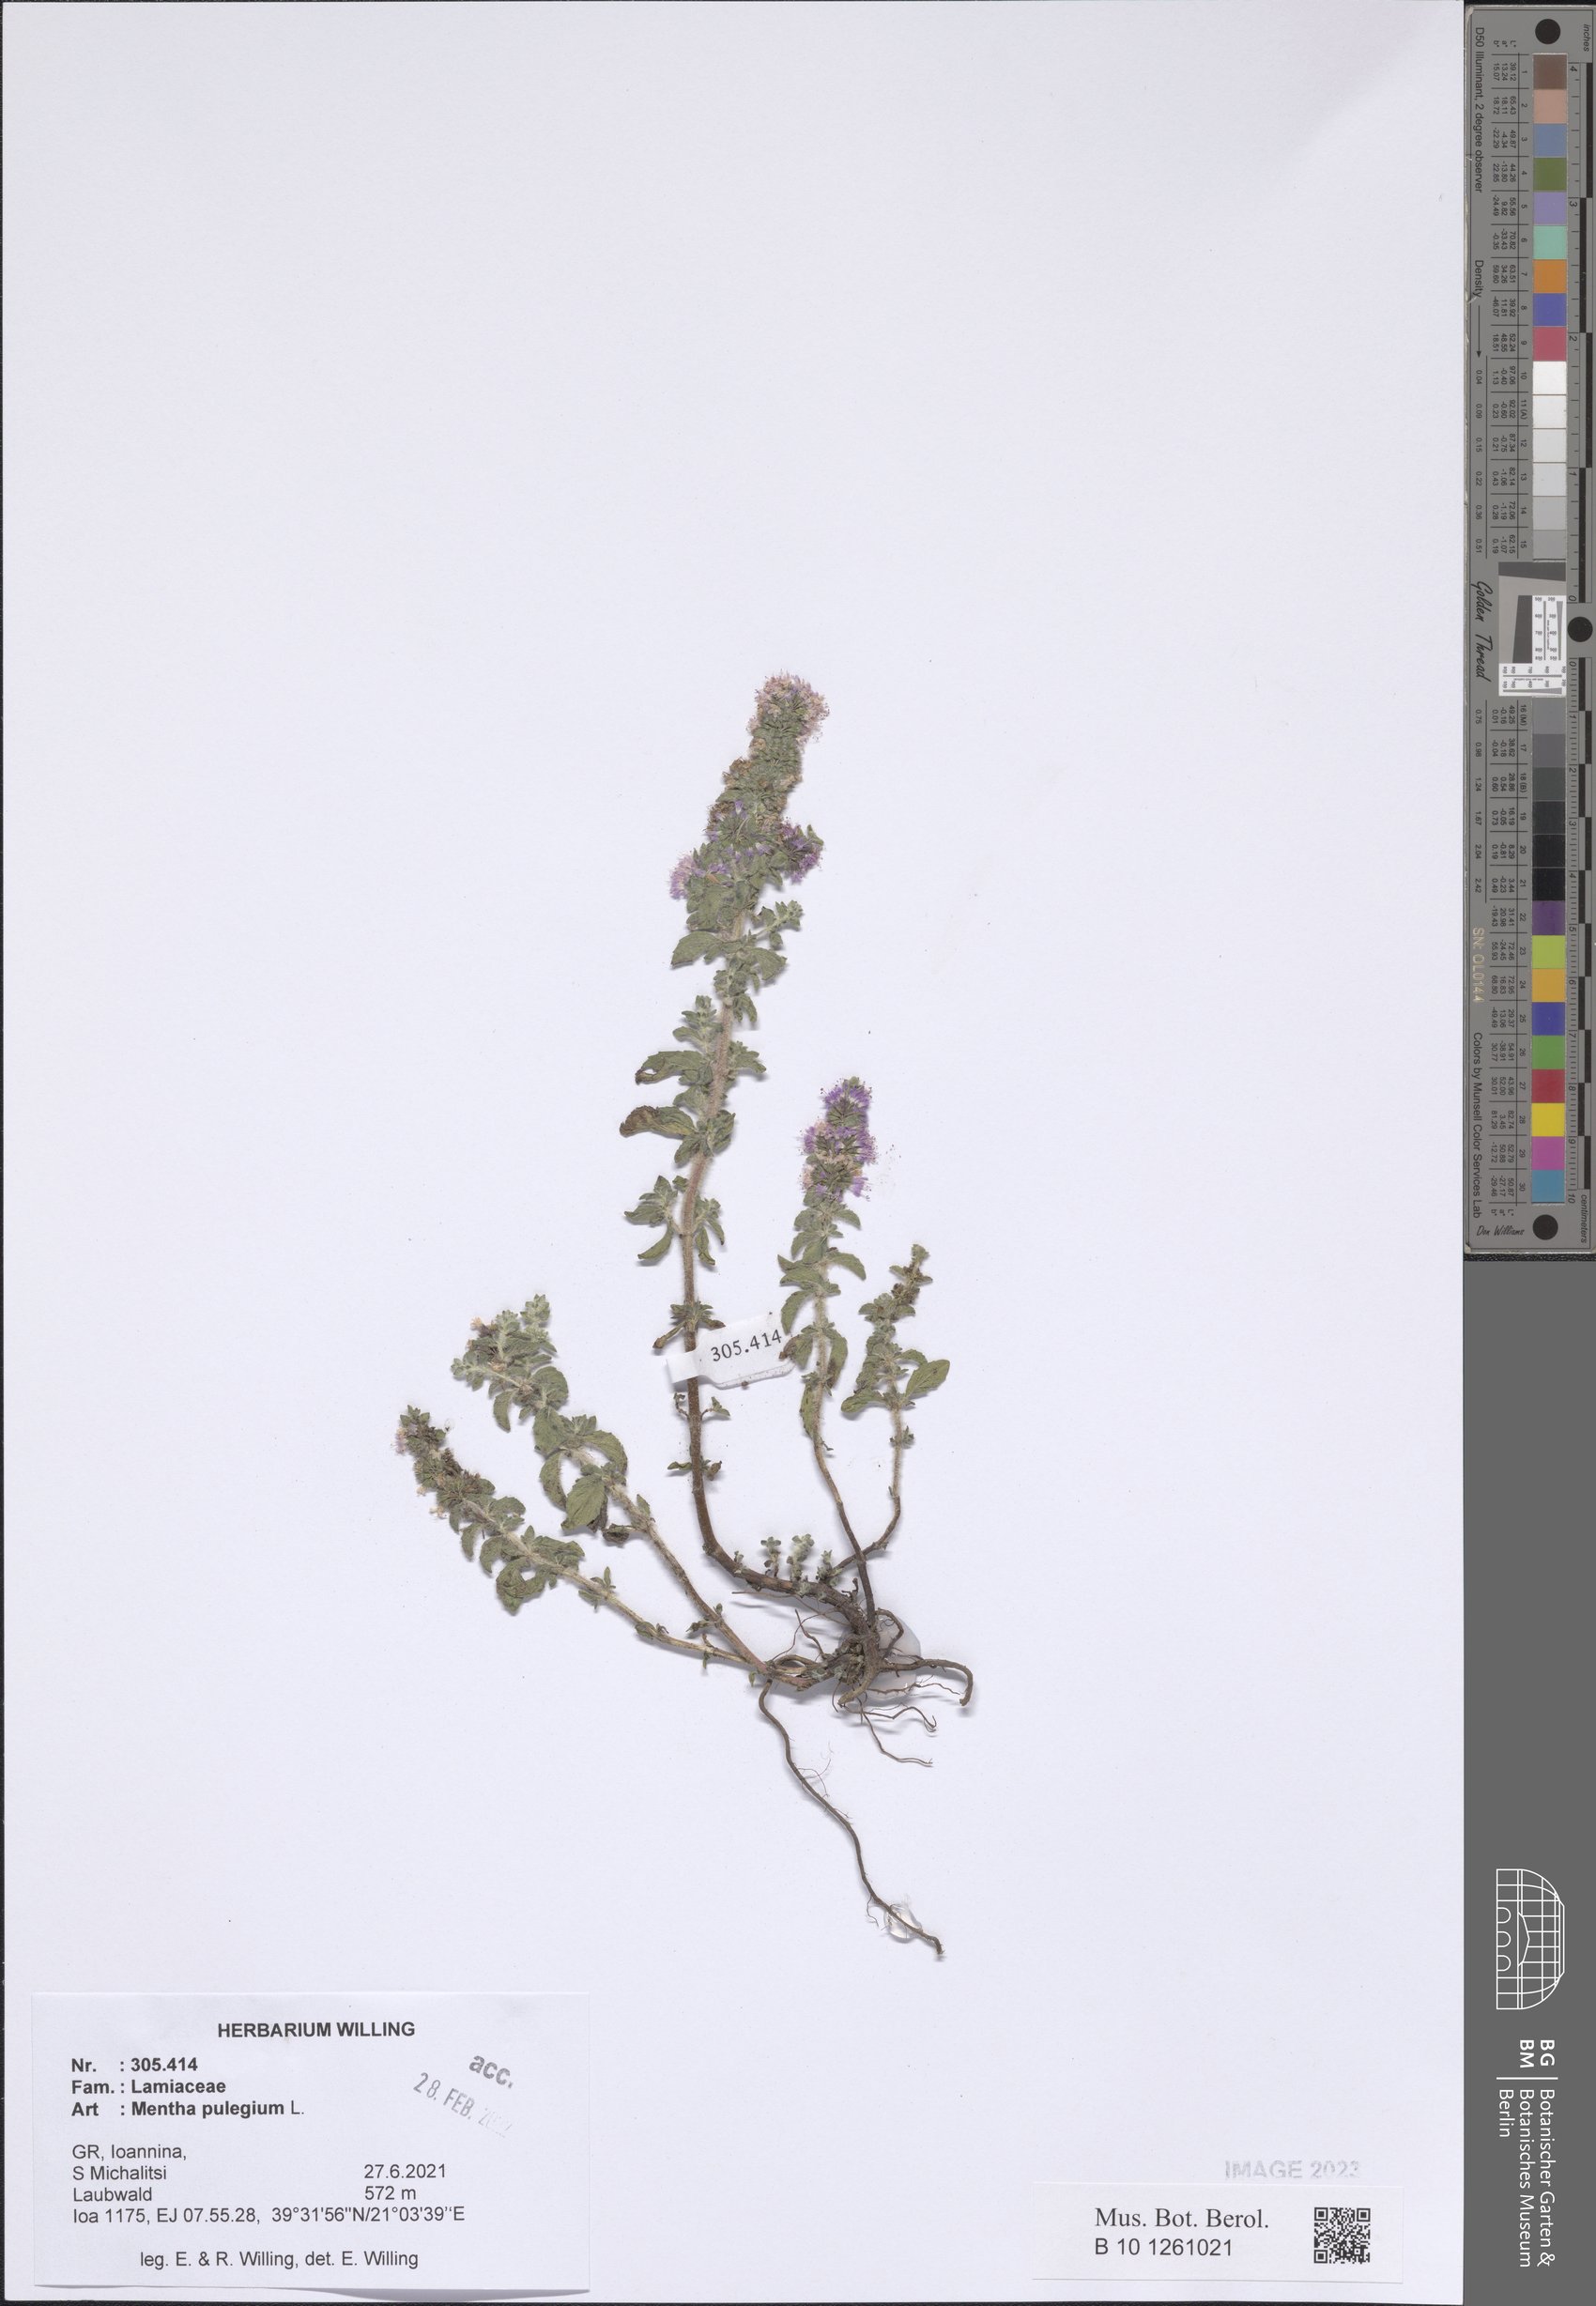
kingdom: Plantae
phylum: Tracheophyta
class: Magnoliopsida
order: Lamiales
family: Lamiaceae
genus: Mentha
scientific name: Mentha pulegium
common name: Pennyroyal
